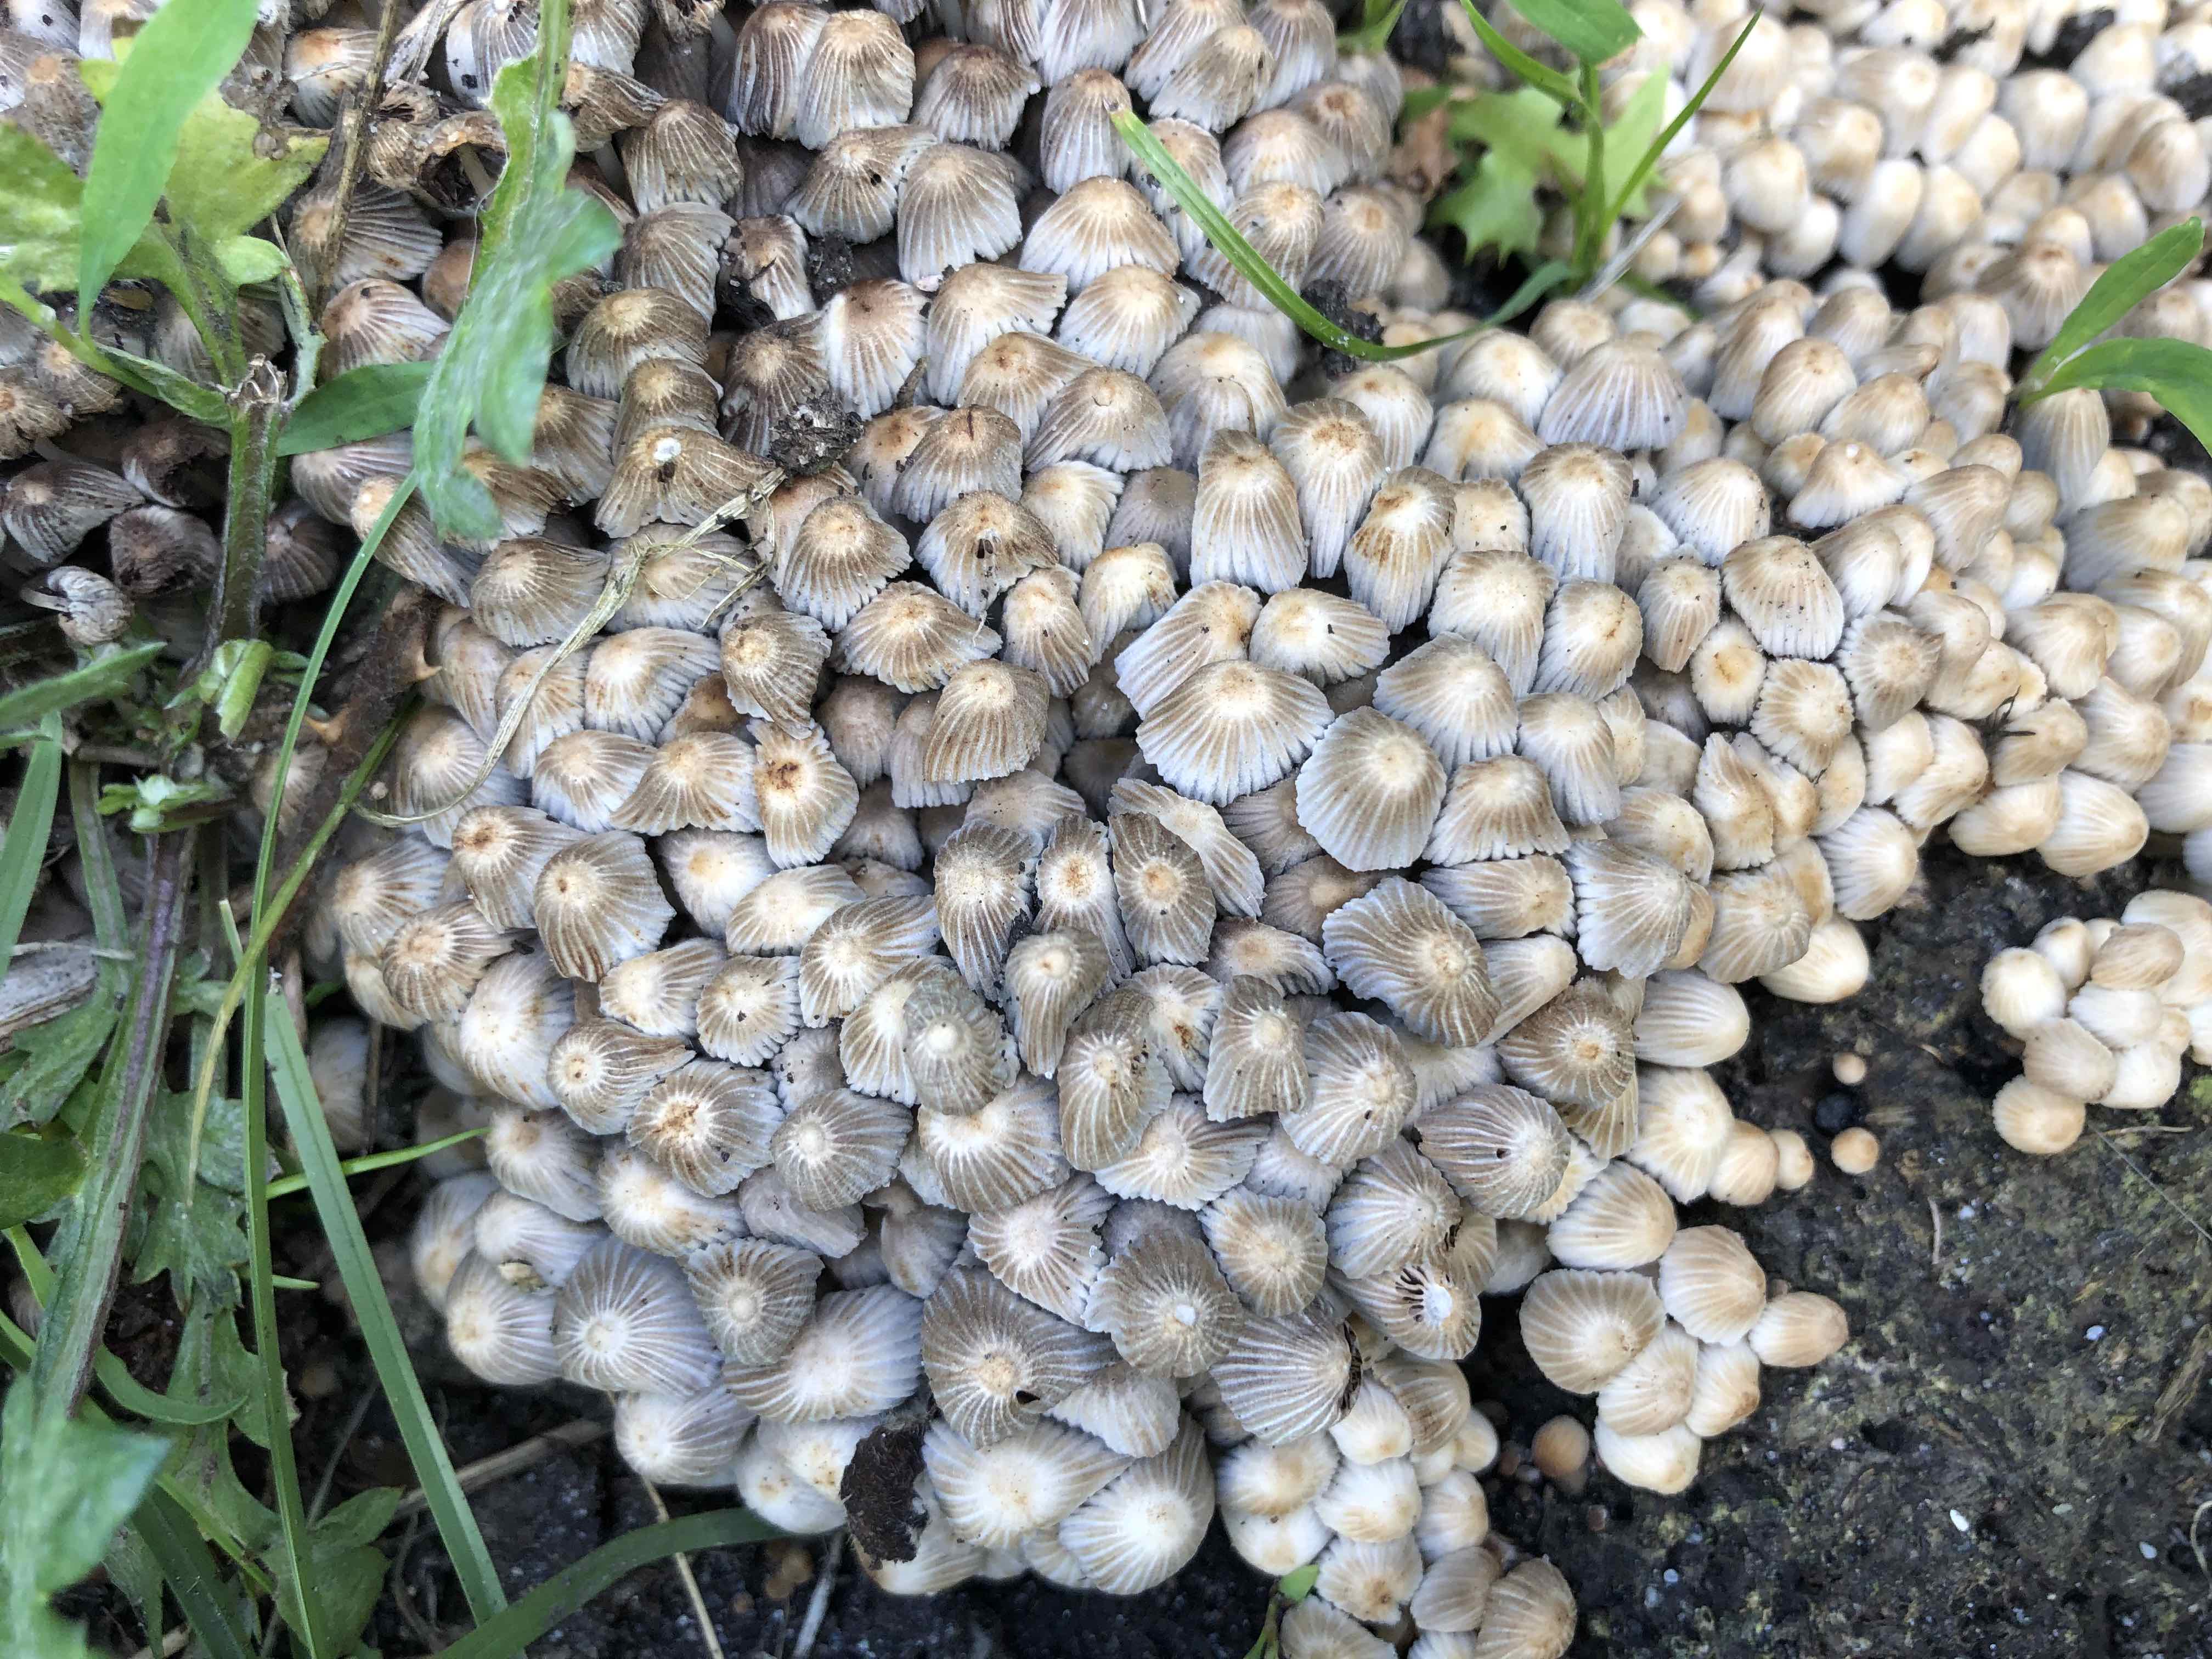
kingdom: Fungi
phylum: Basidiomycota
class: Agaricomycetes
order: Agaricales
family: Psathyrellaceae
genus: Coprinellus
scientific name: Coprinellus disseminatus
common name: bredsået blækhat
